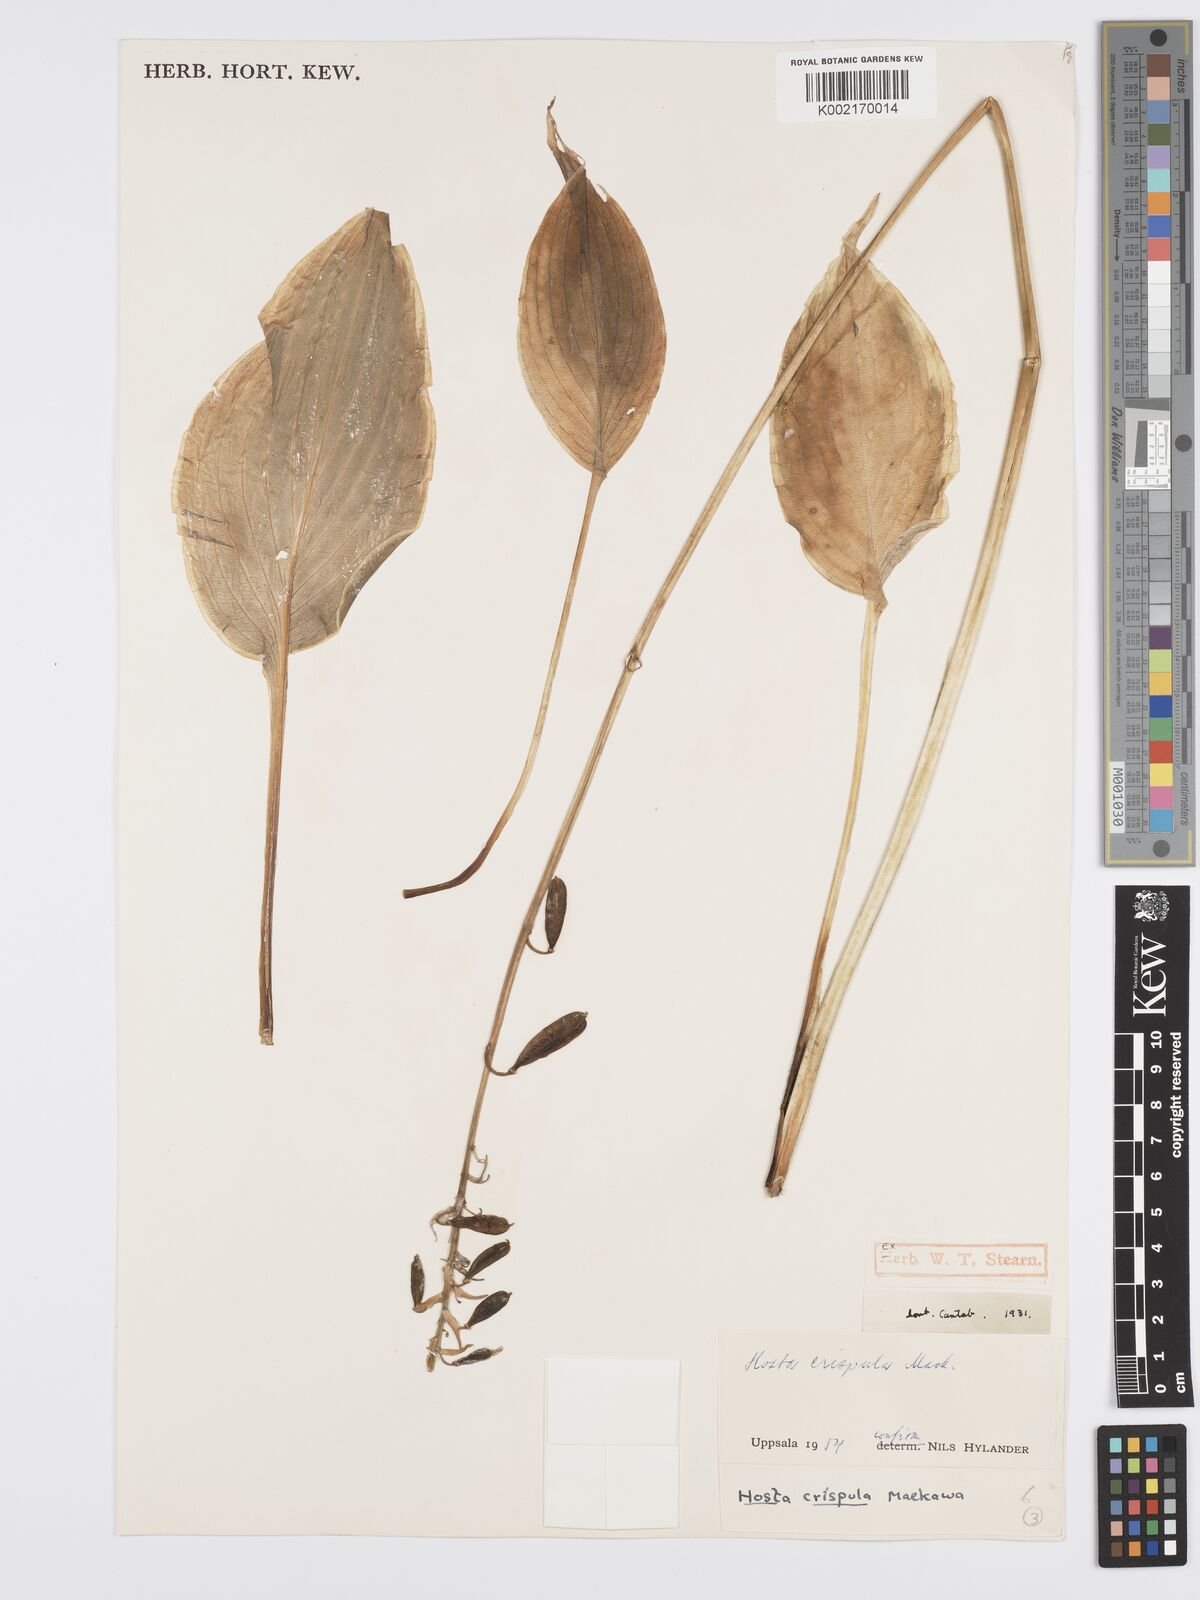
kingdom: Plantae
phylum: Tracheophyta
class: Liliopsida
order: Asparagales
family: Asparagaceae
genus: Hosta
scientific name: Hosta sieboldiana
